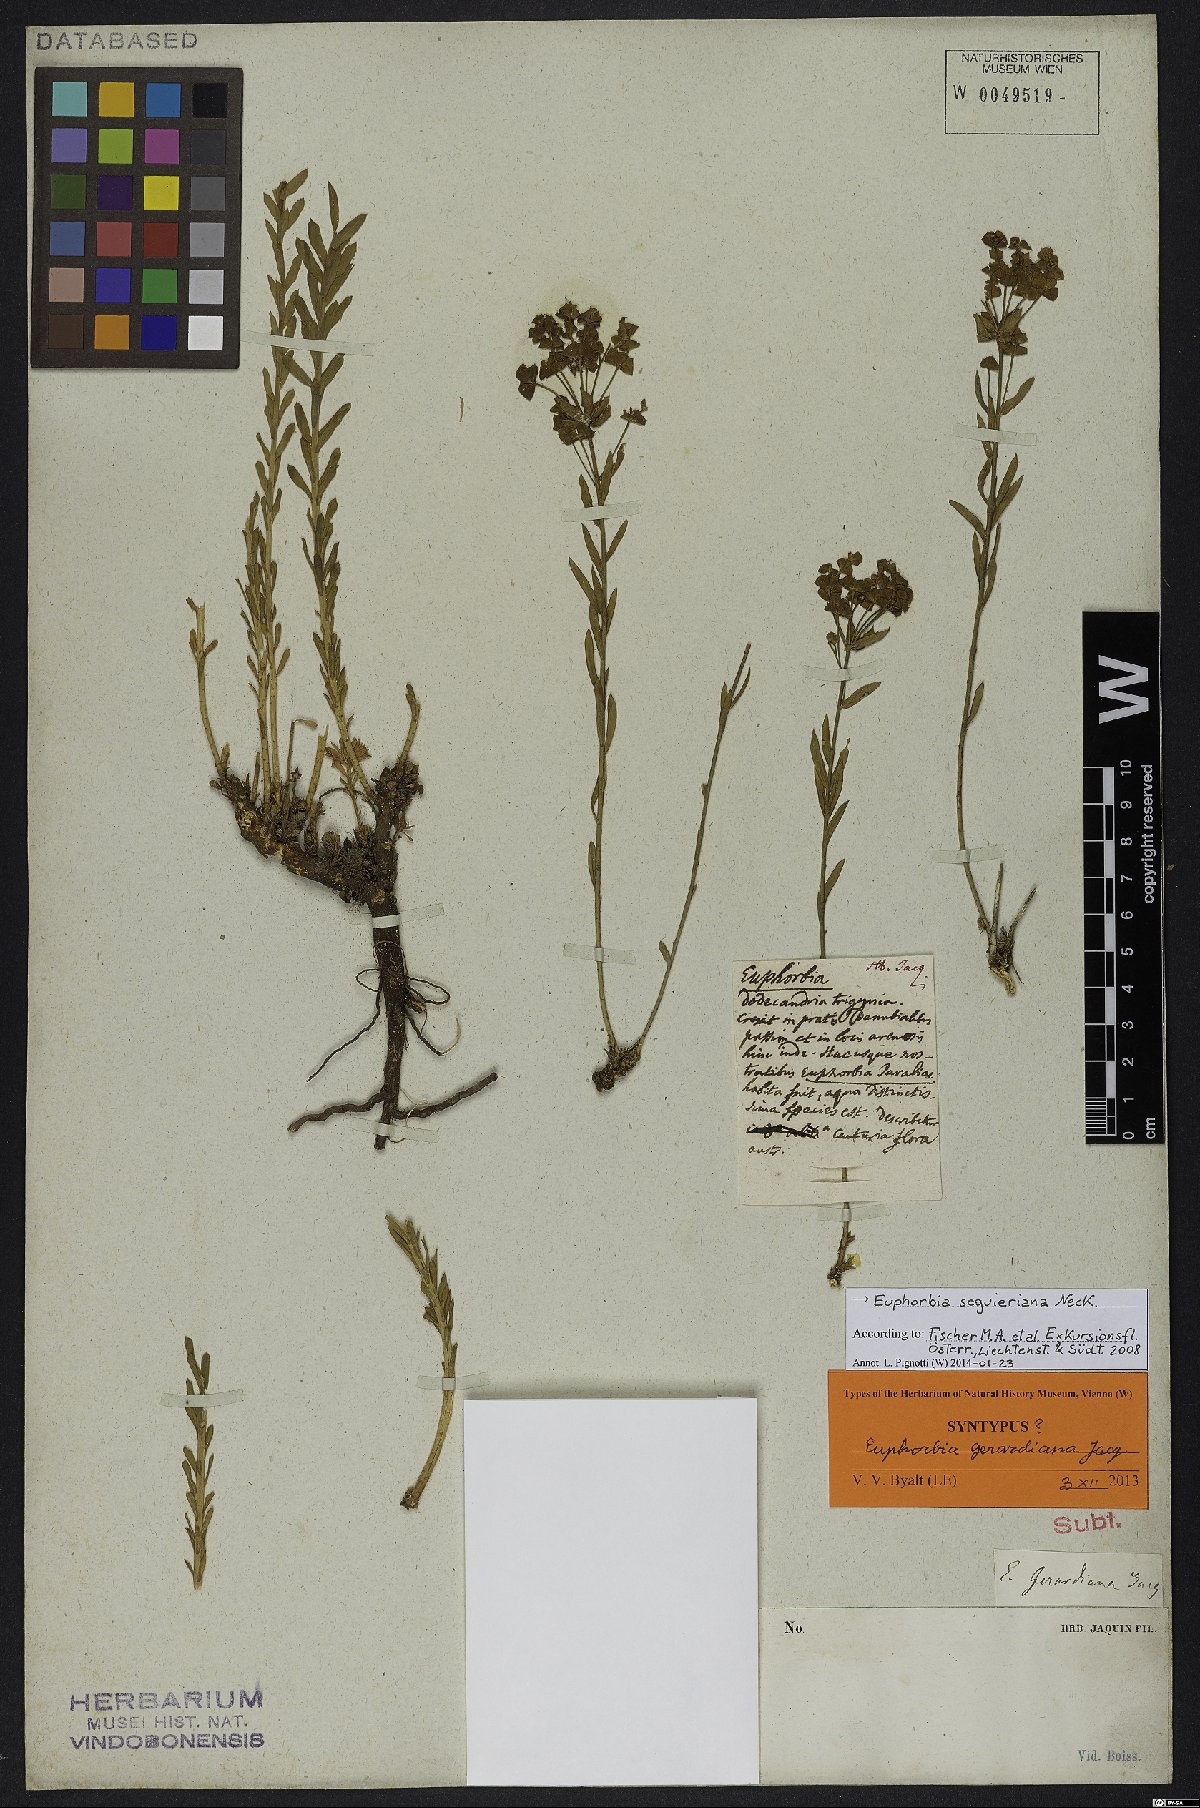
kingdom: Plantae
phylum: Tracheophyta
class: Magnoliopsida
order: Malpighiales
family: Euphorbiaceae
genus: Euphorbia
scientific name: Euphorbia seguieriana
